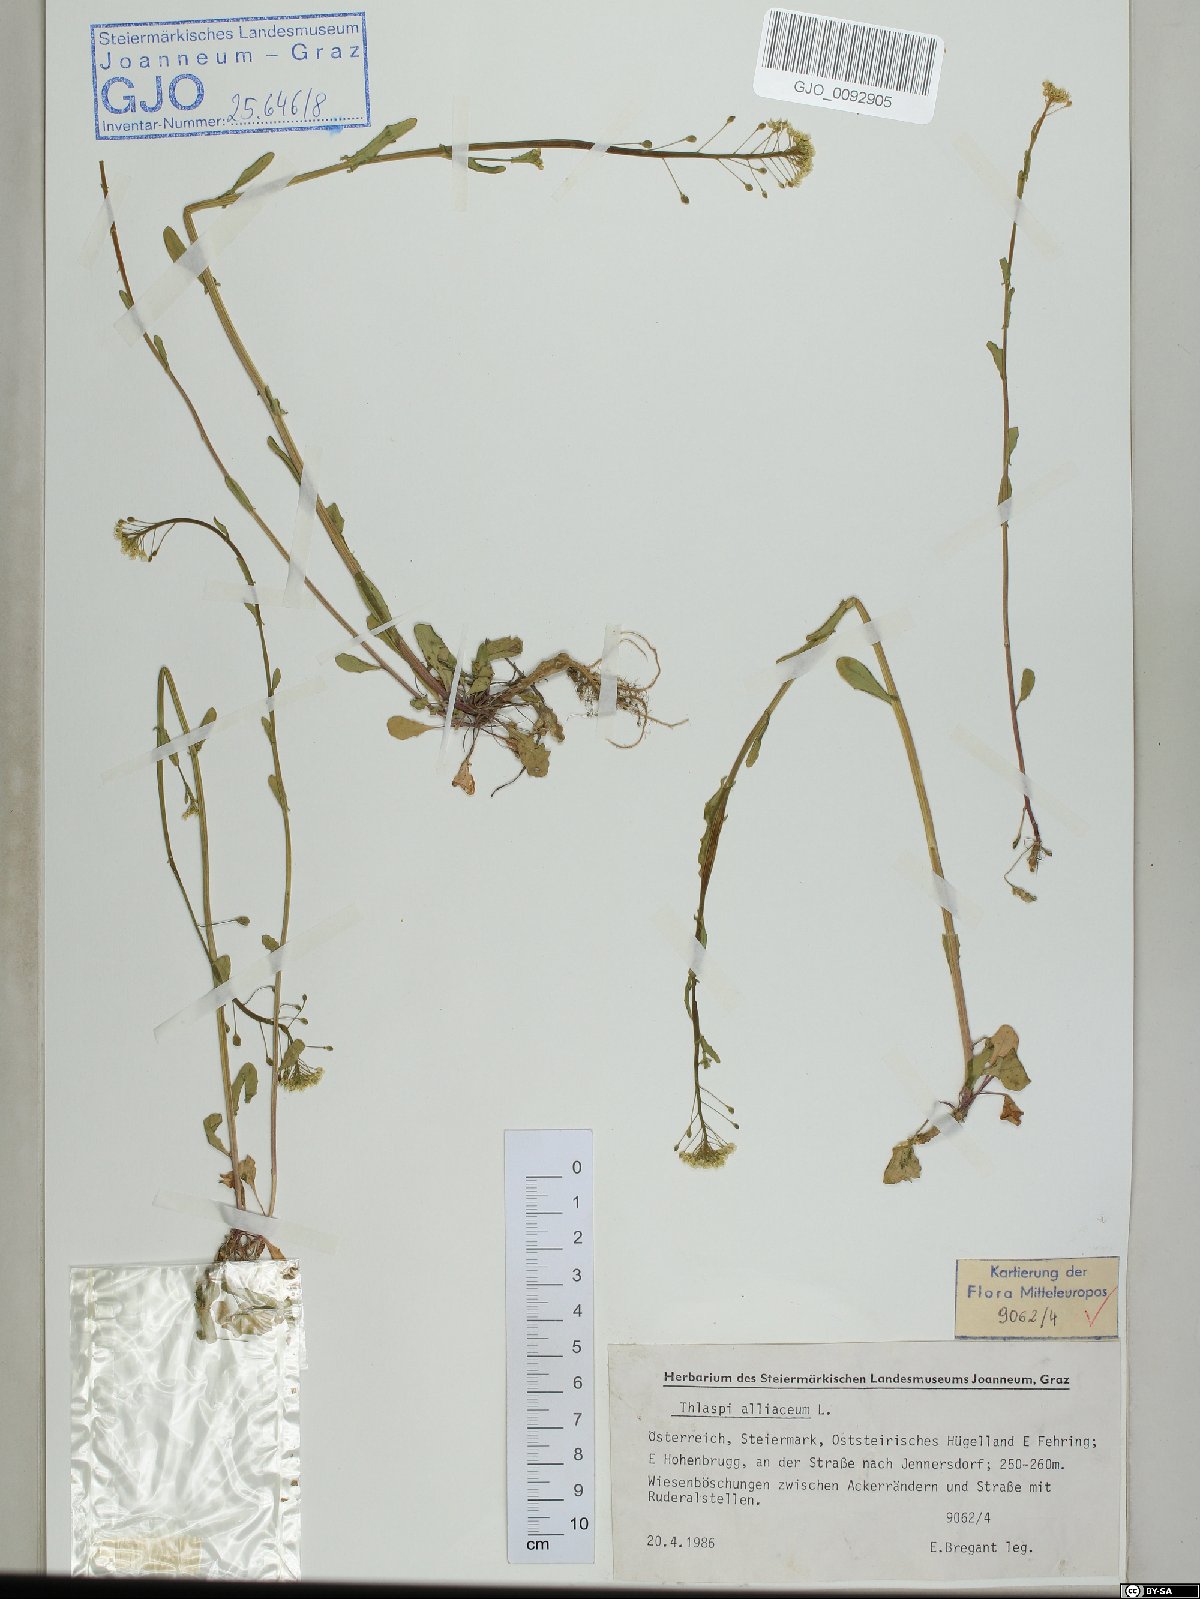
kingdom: Plantae
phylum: Tracheophyta
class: Magnoliopsida
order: Brassicales
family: Brassicaceae
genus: Mummenhoffia
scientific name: Mummenhoffia alliacea
